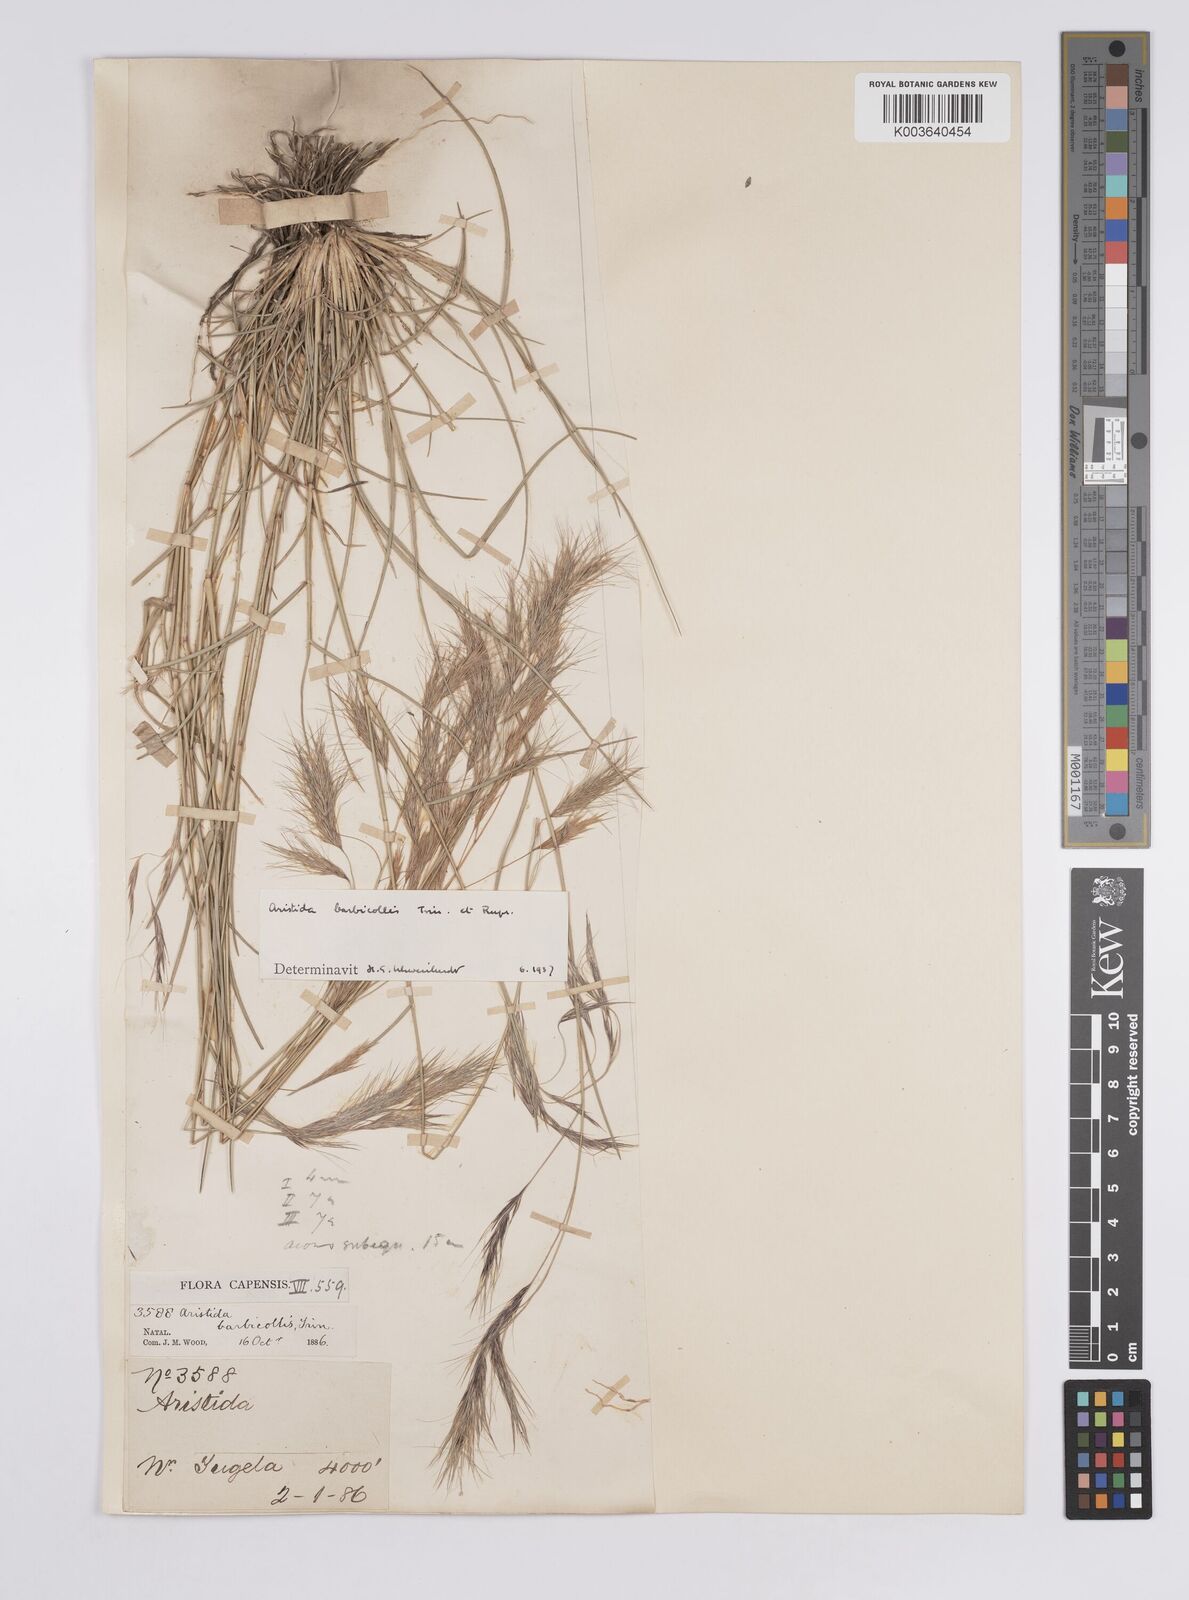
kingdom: Plantae
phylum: Tracheophyta
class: Liliopsida
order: Poales
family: Poaceae
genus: Aristida
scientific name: Aristida barbicollis
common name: Spreading prickle grass
